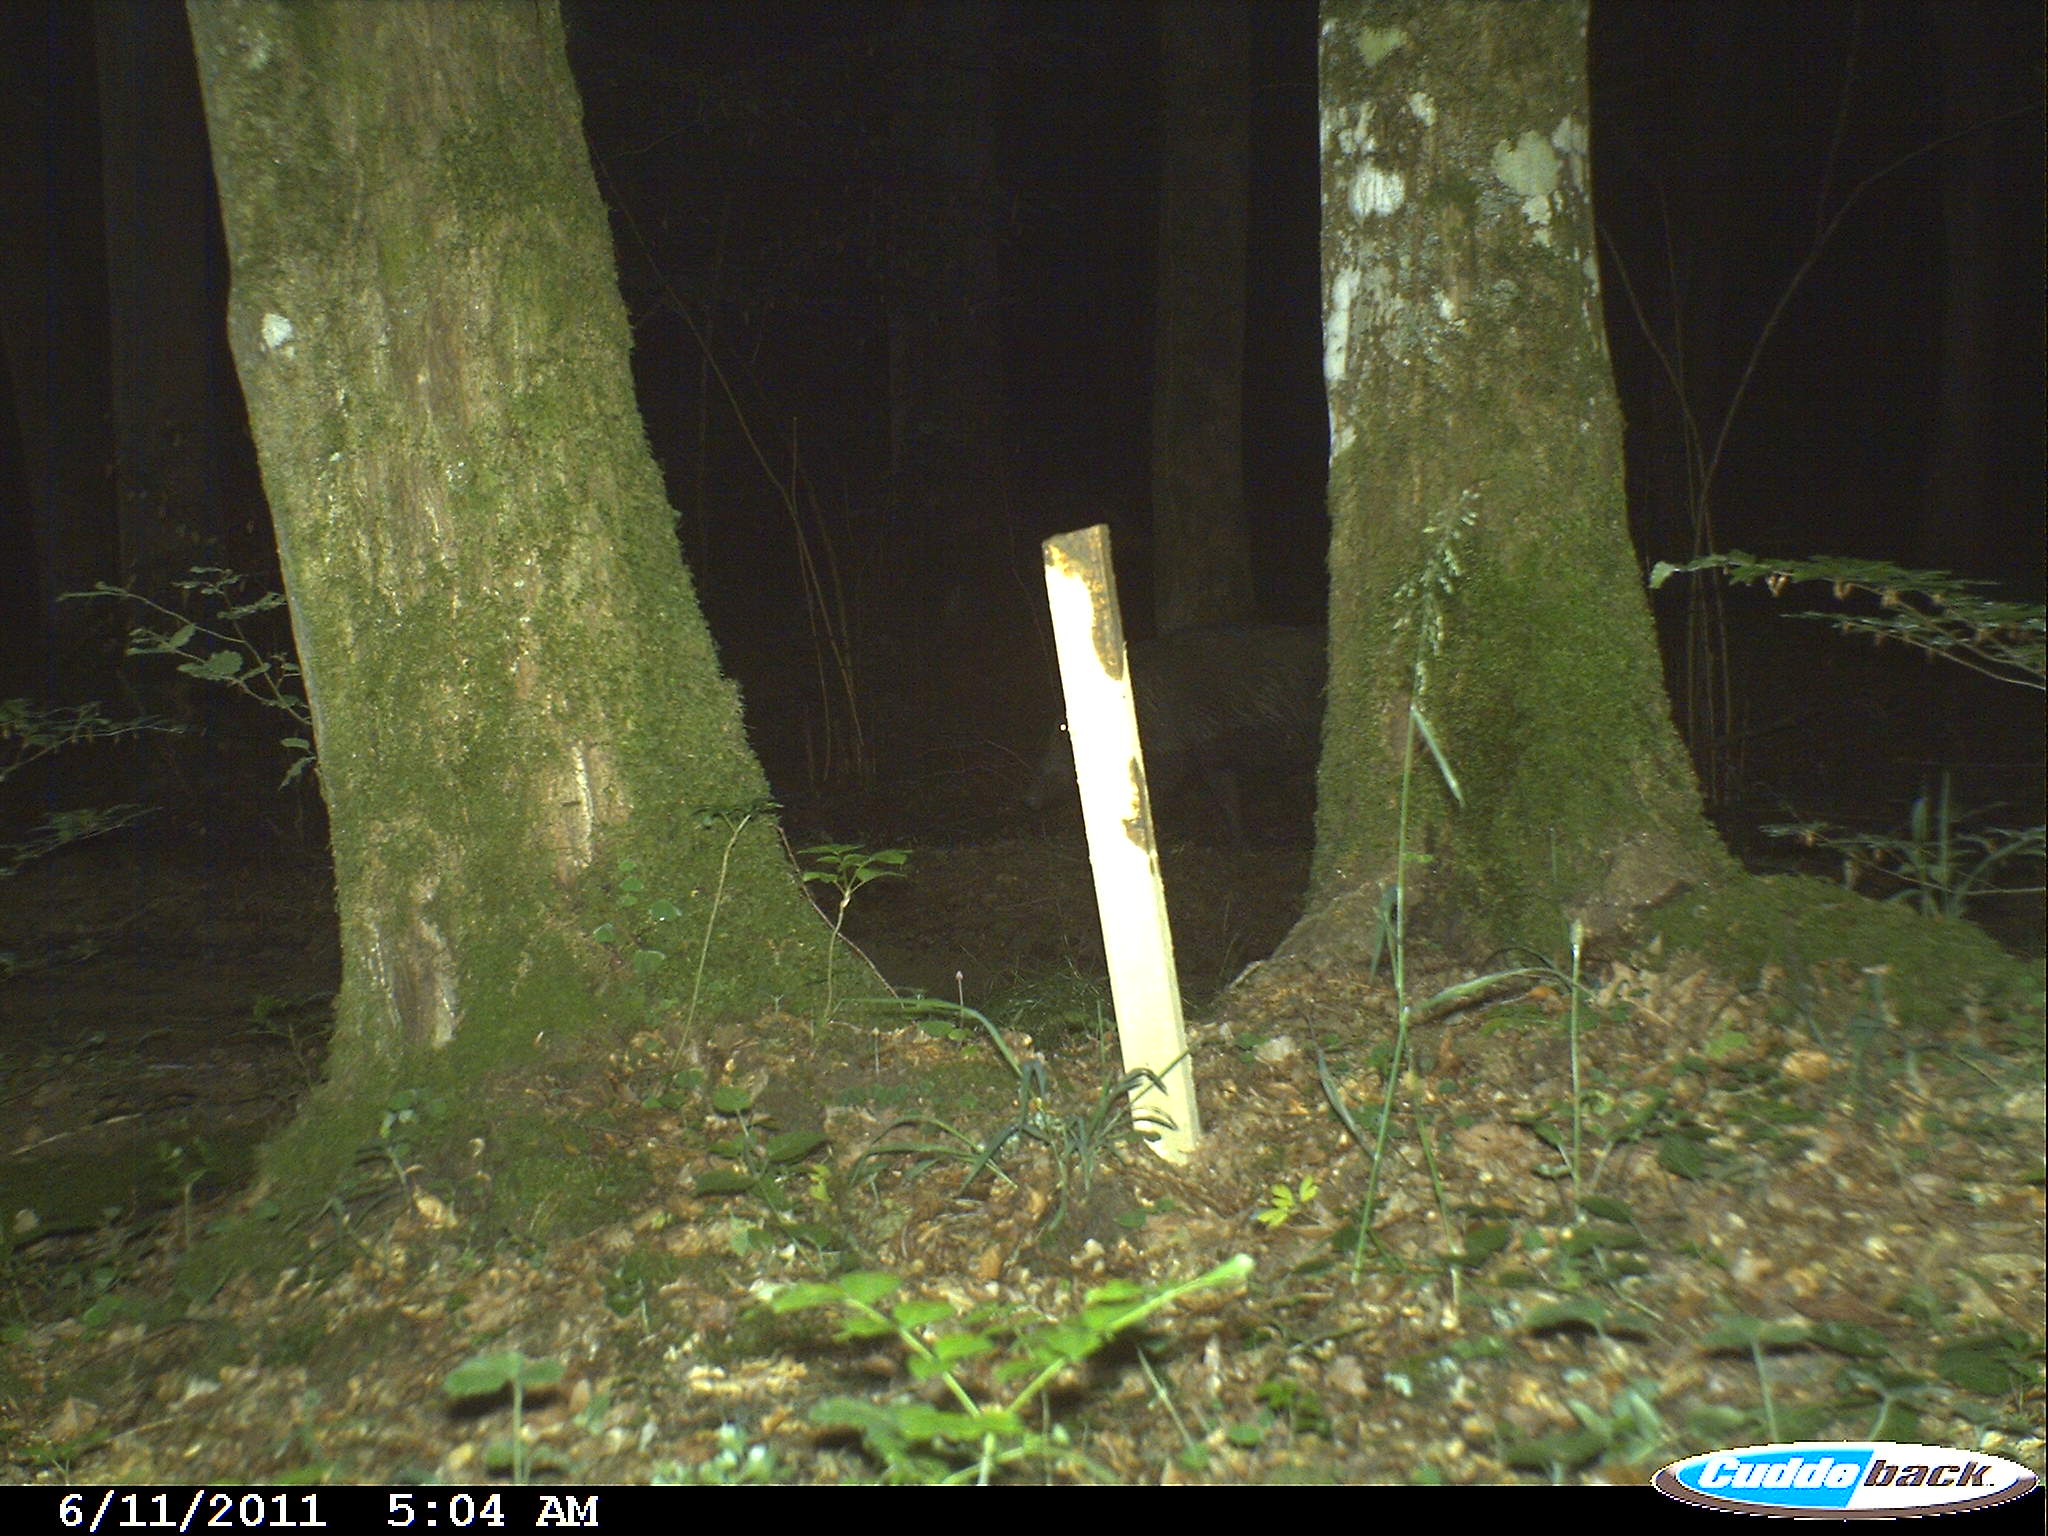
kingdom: Animalia
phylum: Chordata
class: Mammalia
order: Artiodactyla
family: Suidae
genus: Sus
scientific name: Sus scrofa
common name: Wild boar
